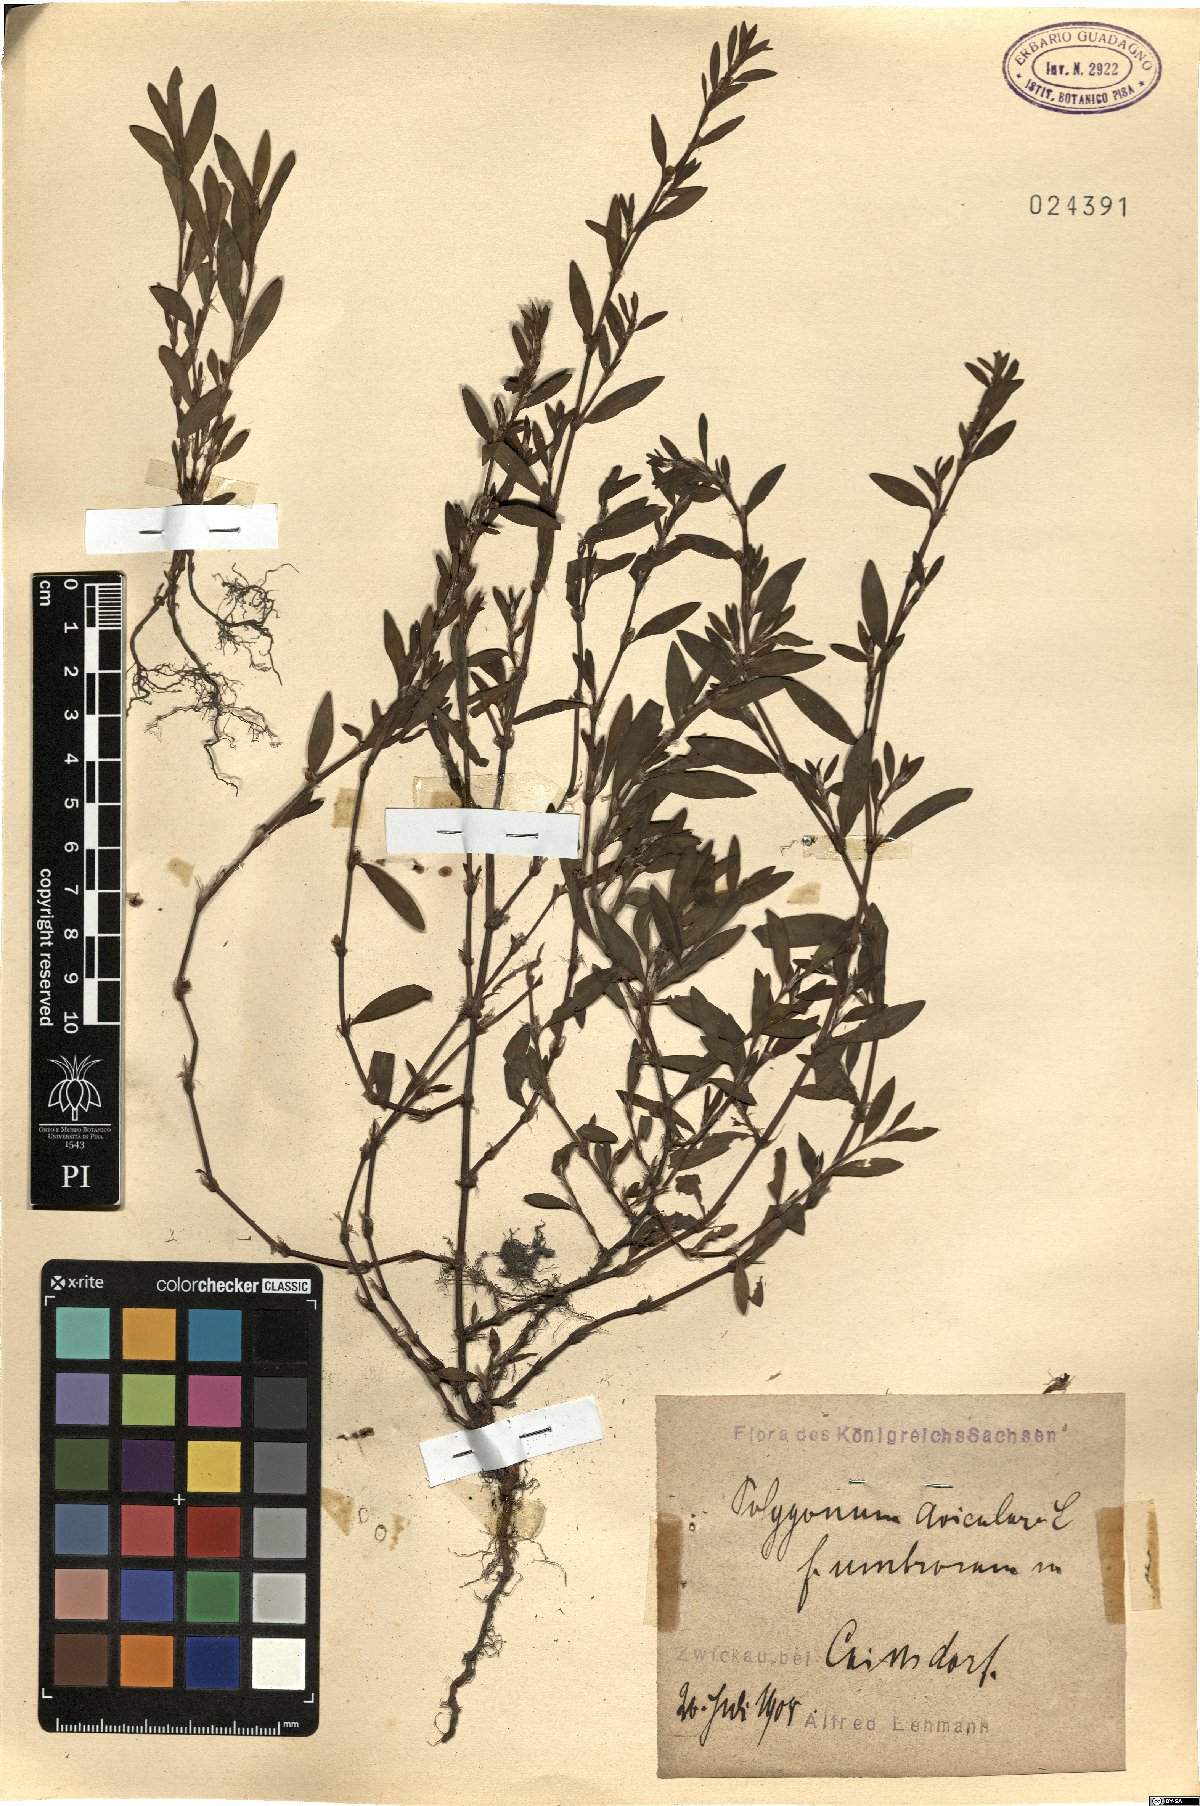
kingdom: Plantae
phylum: Tracheophyta
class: Magnoliopsida
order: Caryophyllales
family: Polygonaceae
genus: Polygonum
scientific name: Polygonum aviculare
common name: Prostrate knotweed
